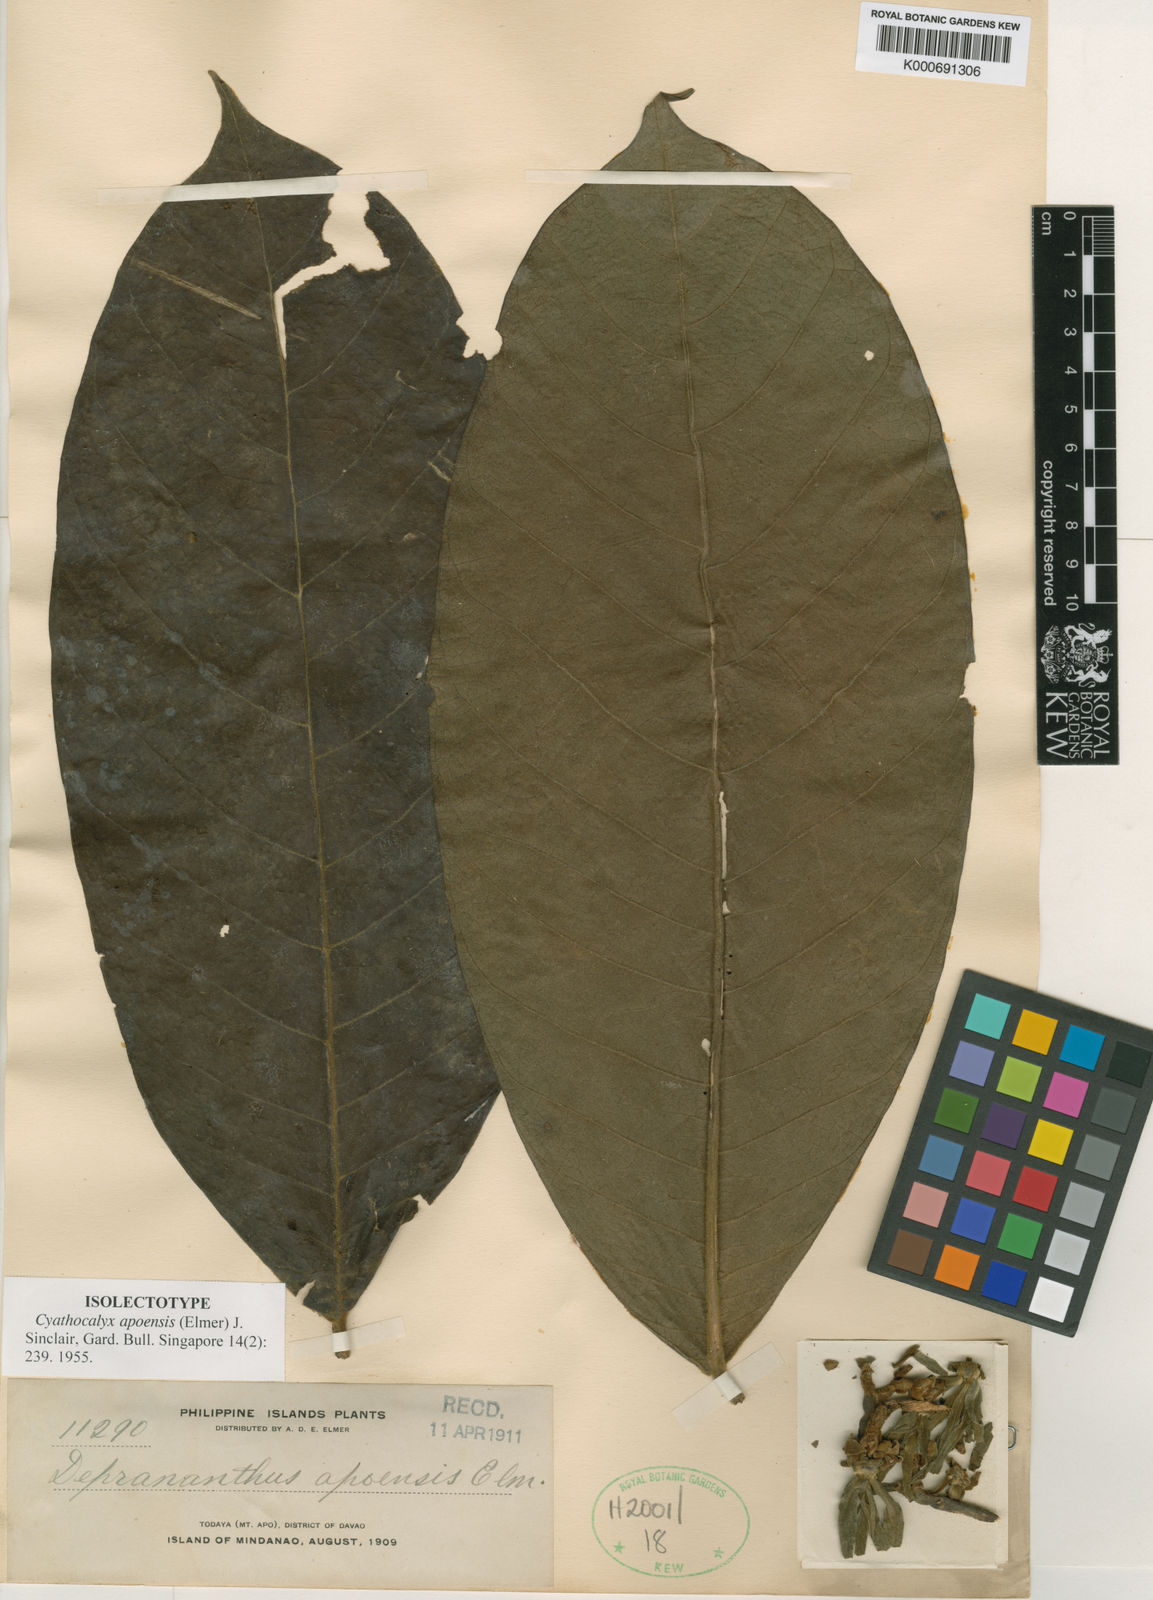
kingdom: Plantae
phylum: Tracheophyta
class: Magnoliopsida
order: Magnoliales
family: Annonaceae
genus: Drepananthus
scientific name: Drepananthus apoensis
